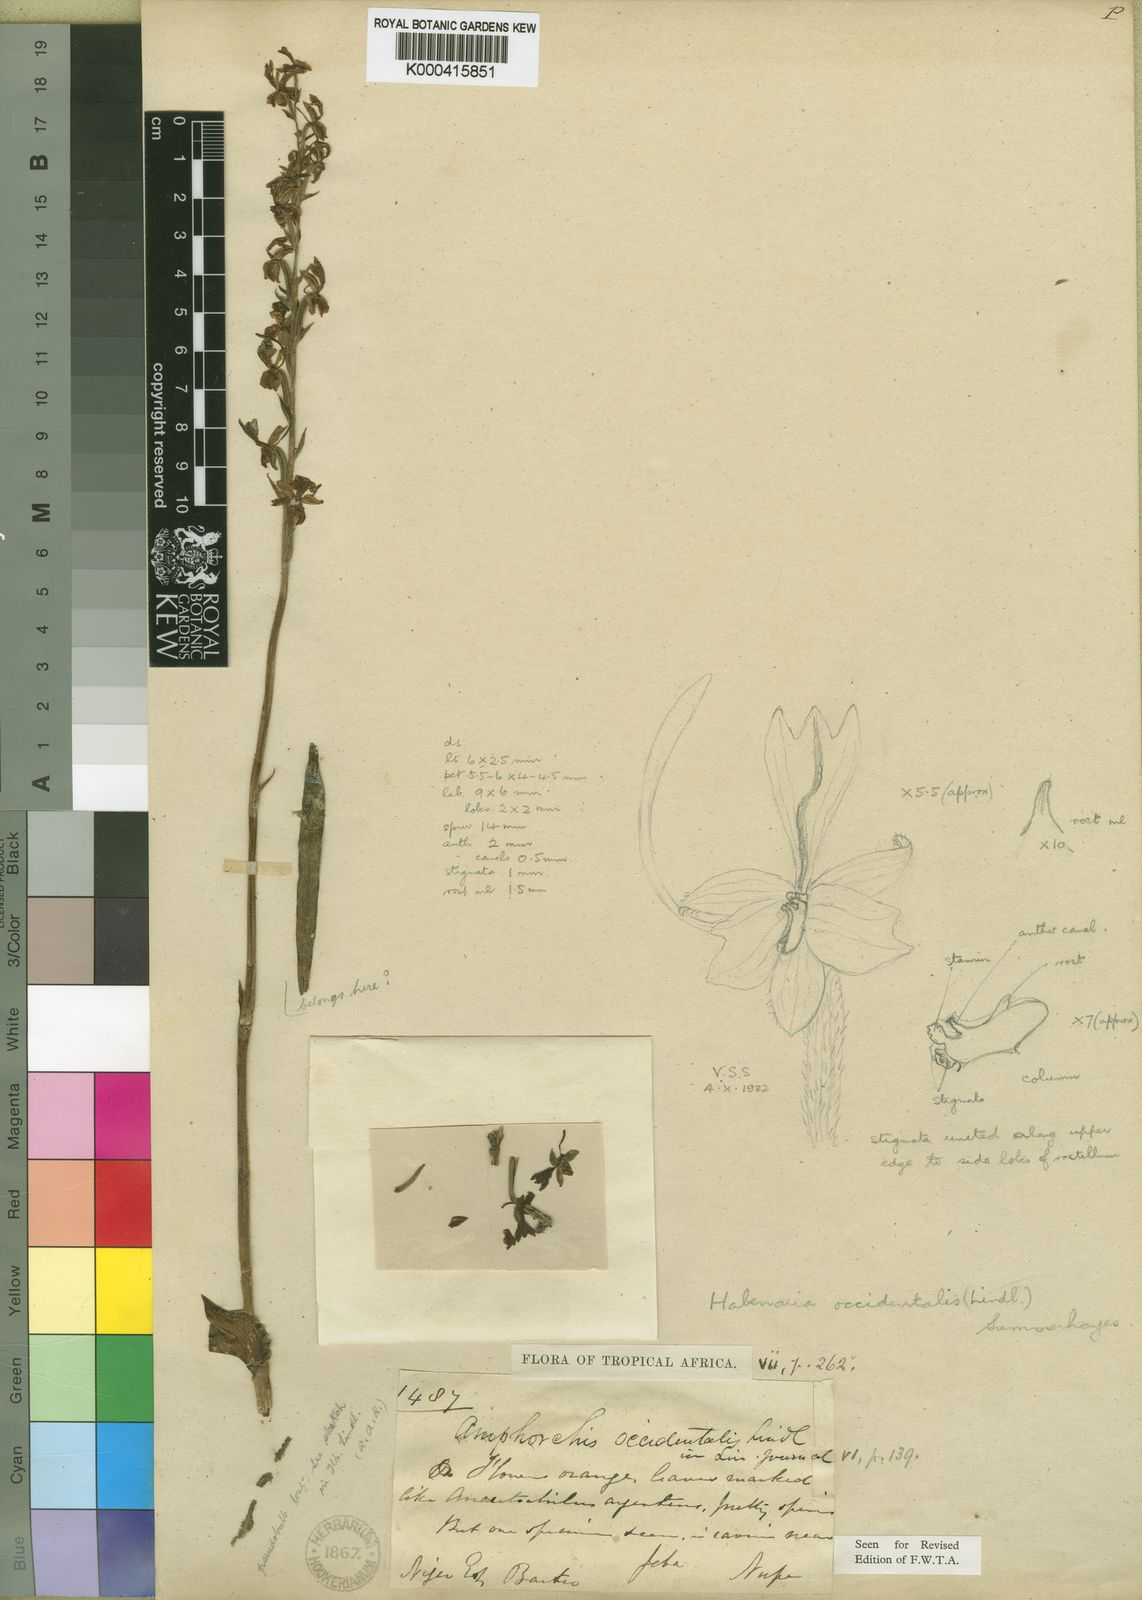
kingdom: Plantae
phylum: Tracheophyta
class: Liliopsida
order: Asparagales
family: Orchidaceae
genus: Habenaria
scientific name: Habenaria occidentalis
